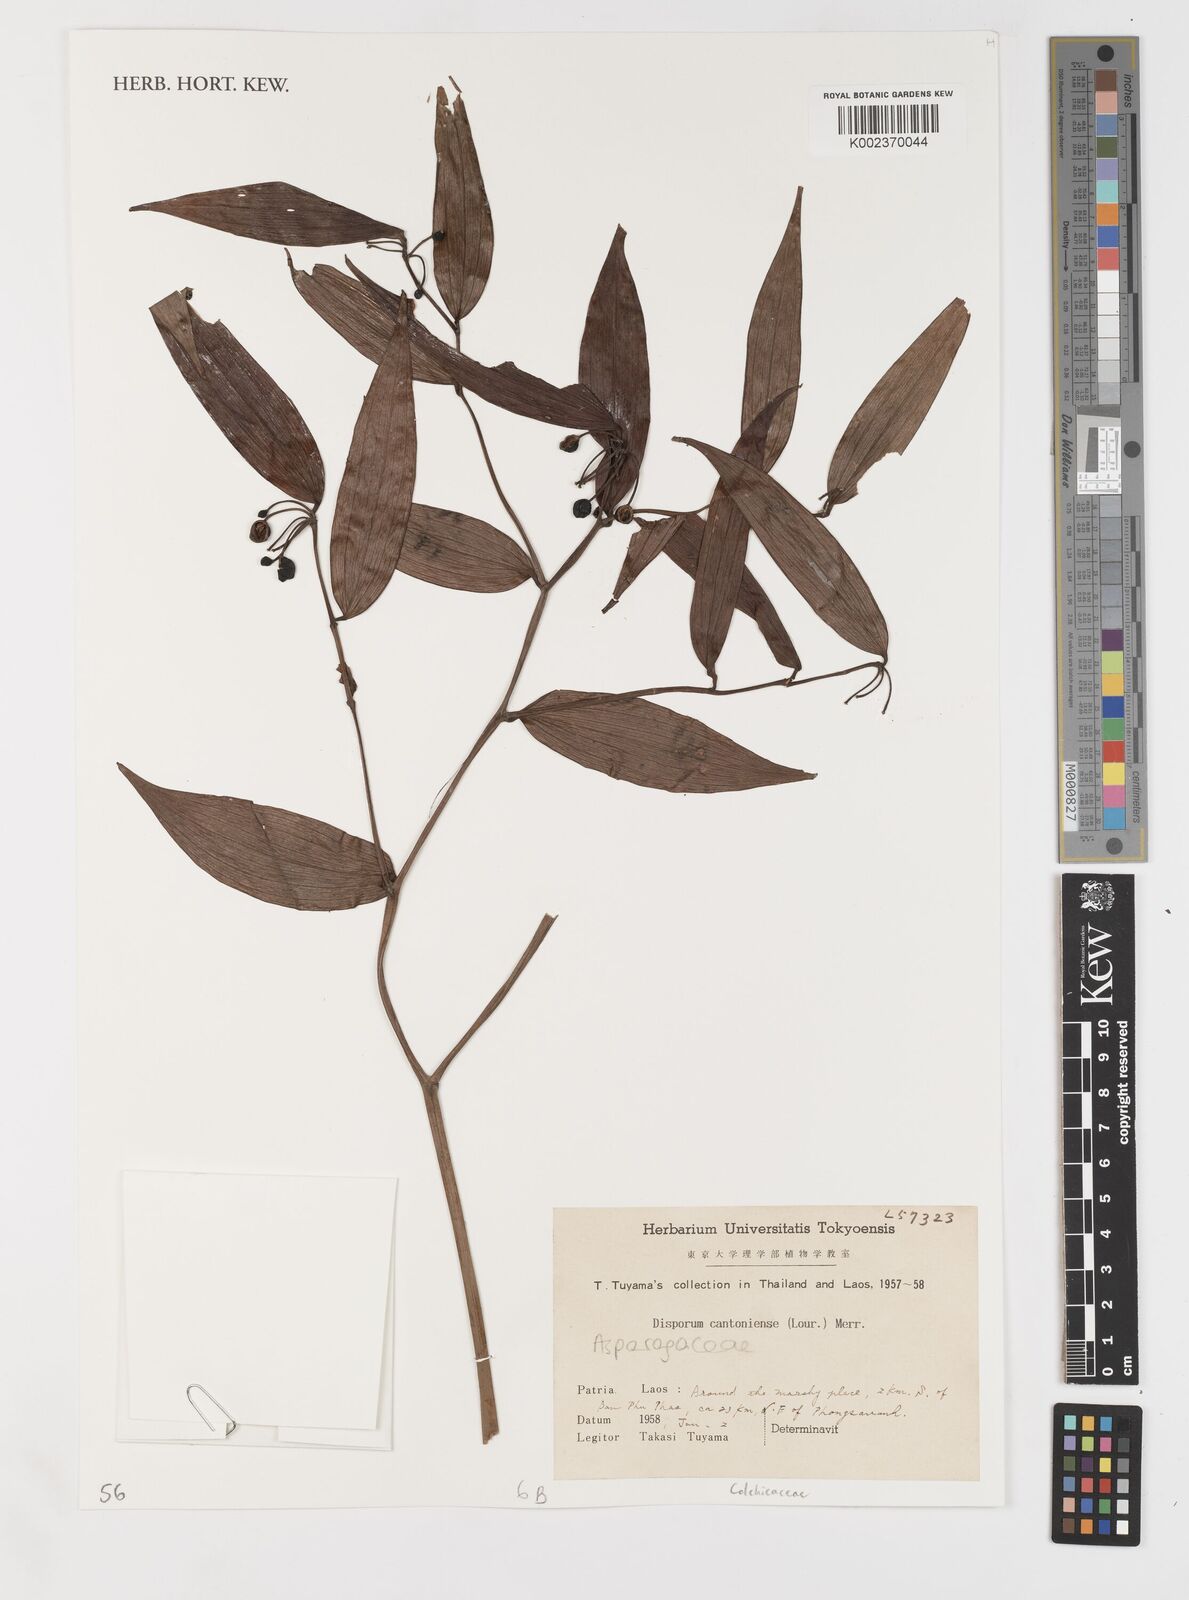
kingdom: Plantae
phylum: Tracheophyta
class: Liliopsida
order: Liliales
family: Colchicaceae
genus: Disporum
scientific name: Disporum cantoniense
